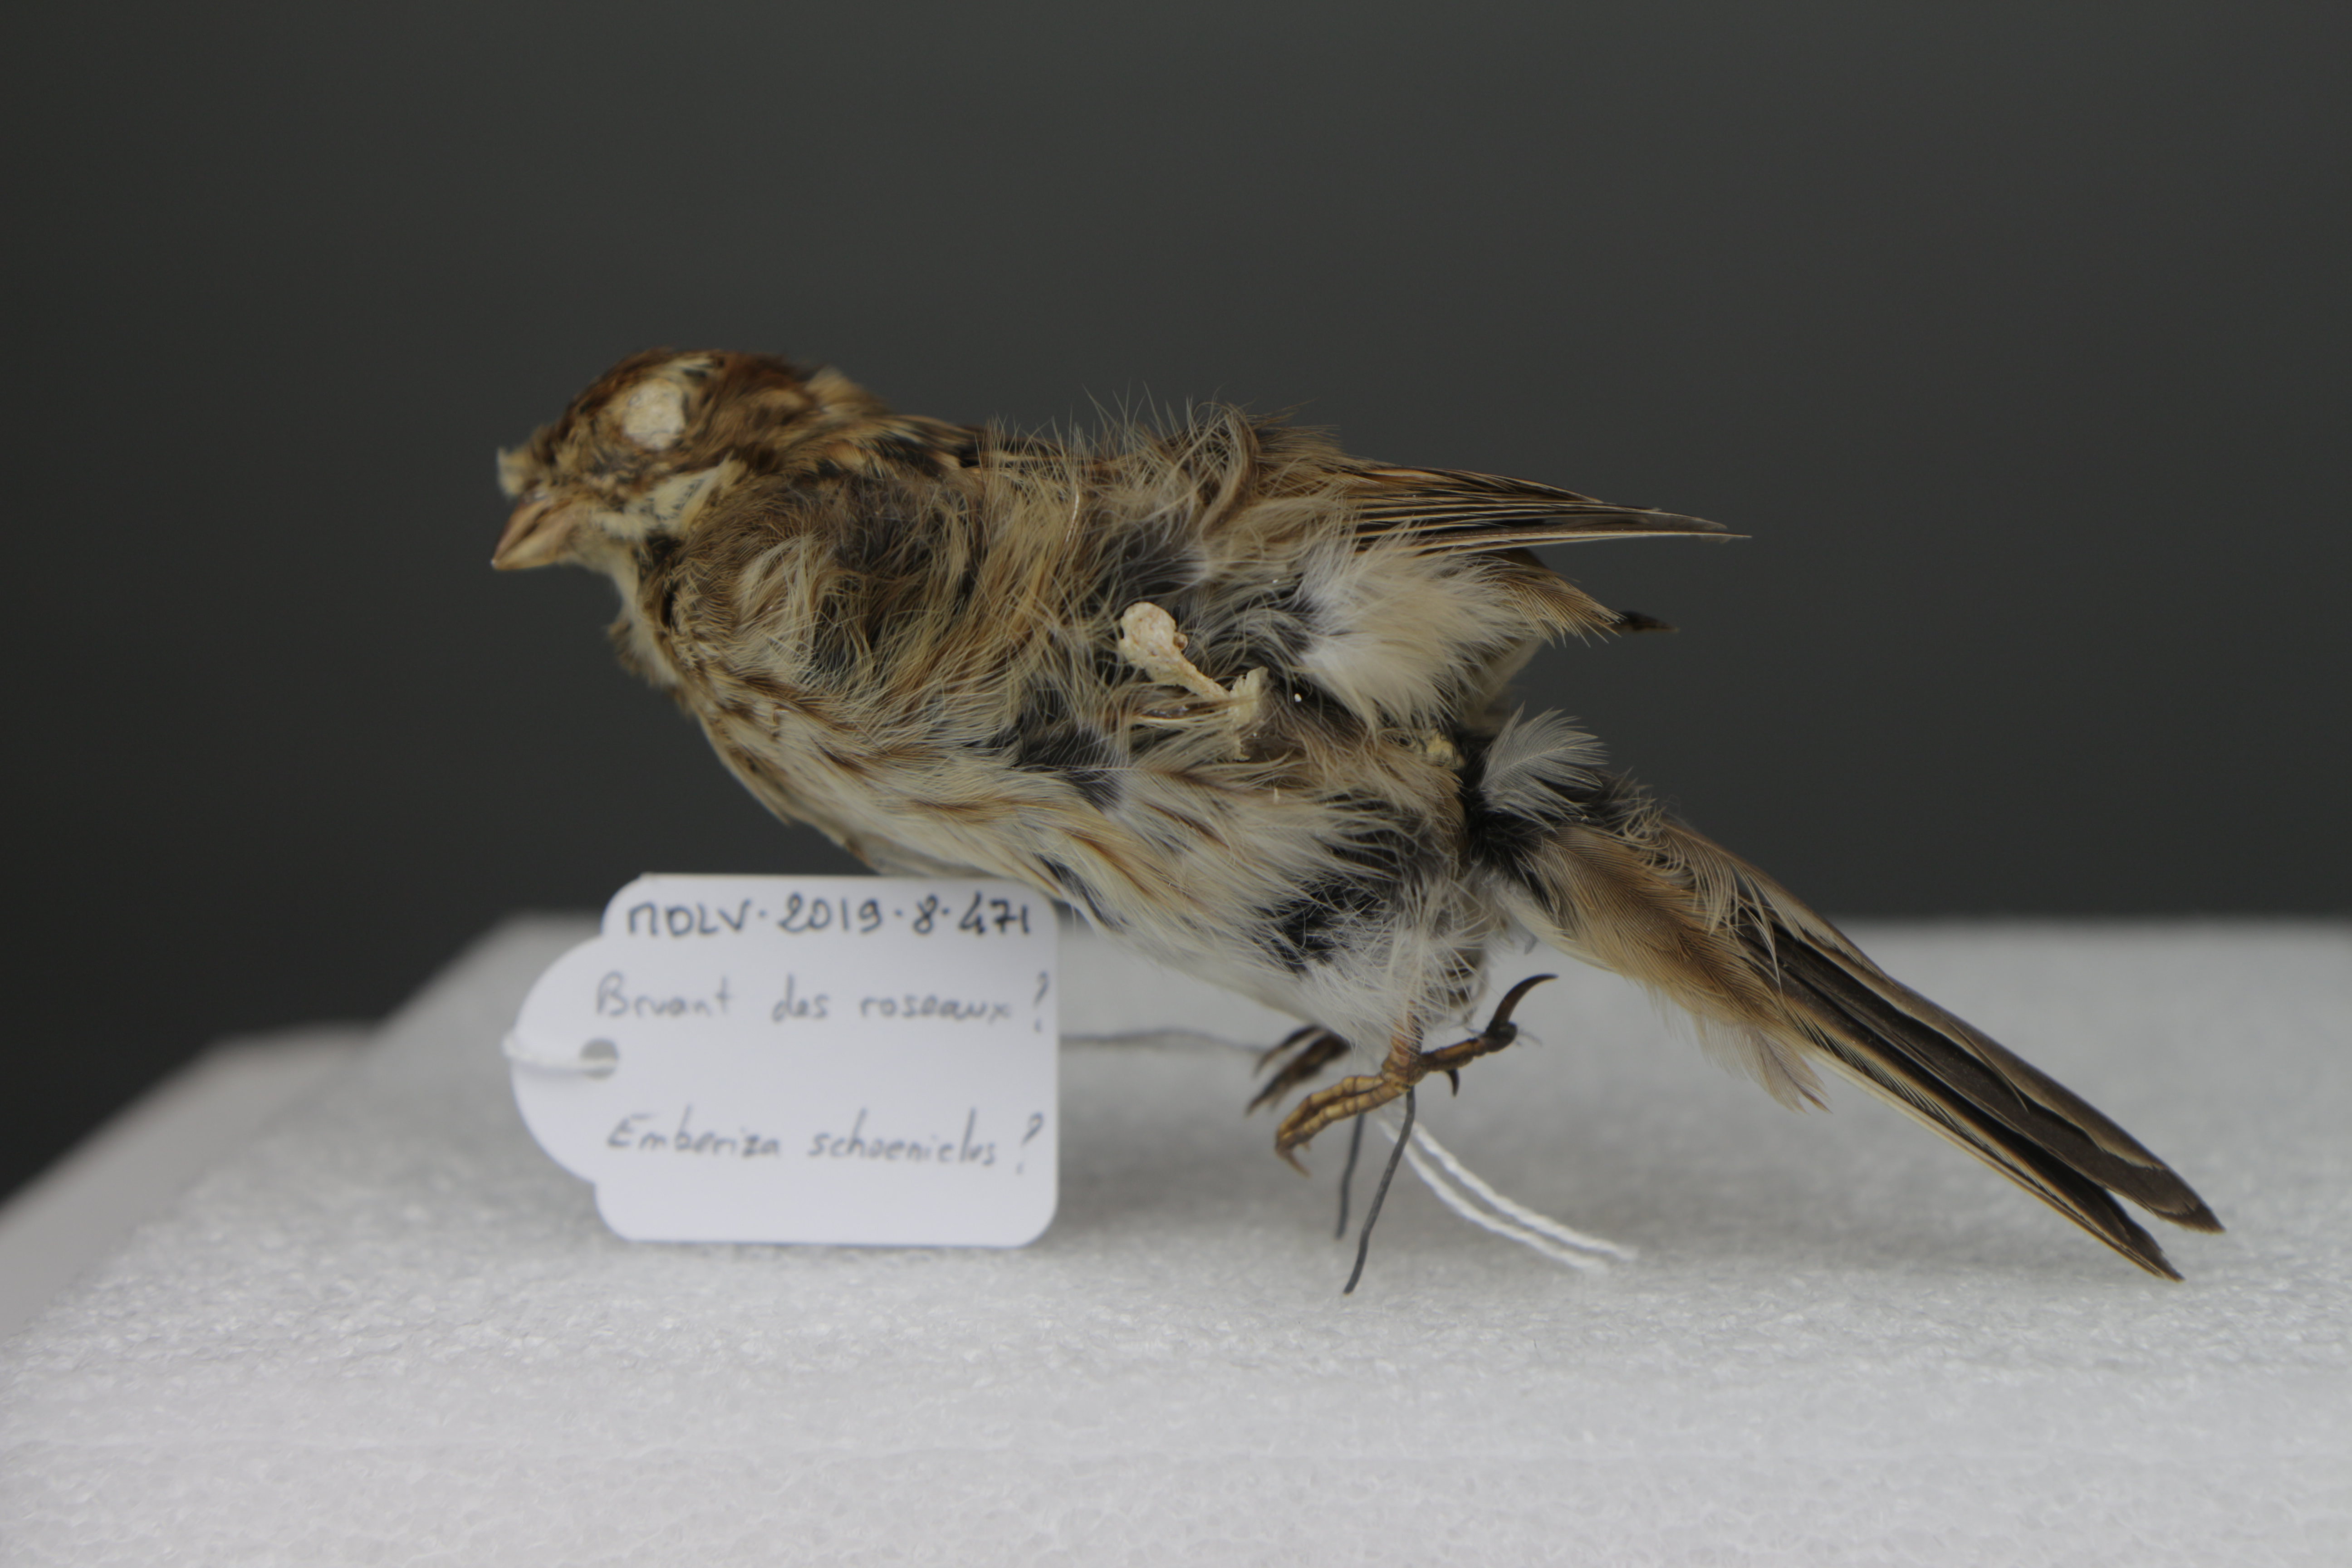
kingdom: Animalia
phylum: Chordata
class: Aves
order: Passeriformes
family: Emberizidae
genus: Emberiza
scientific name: Emberiza schoeniclus
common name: Reed bunting
